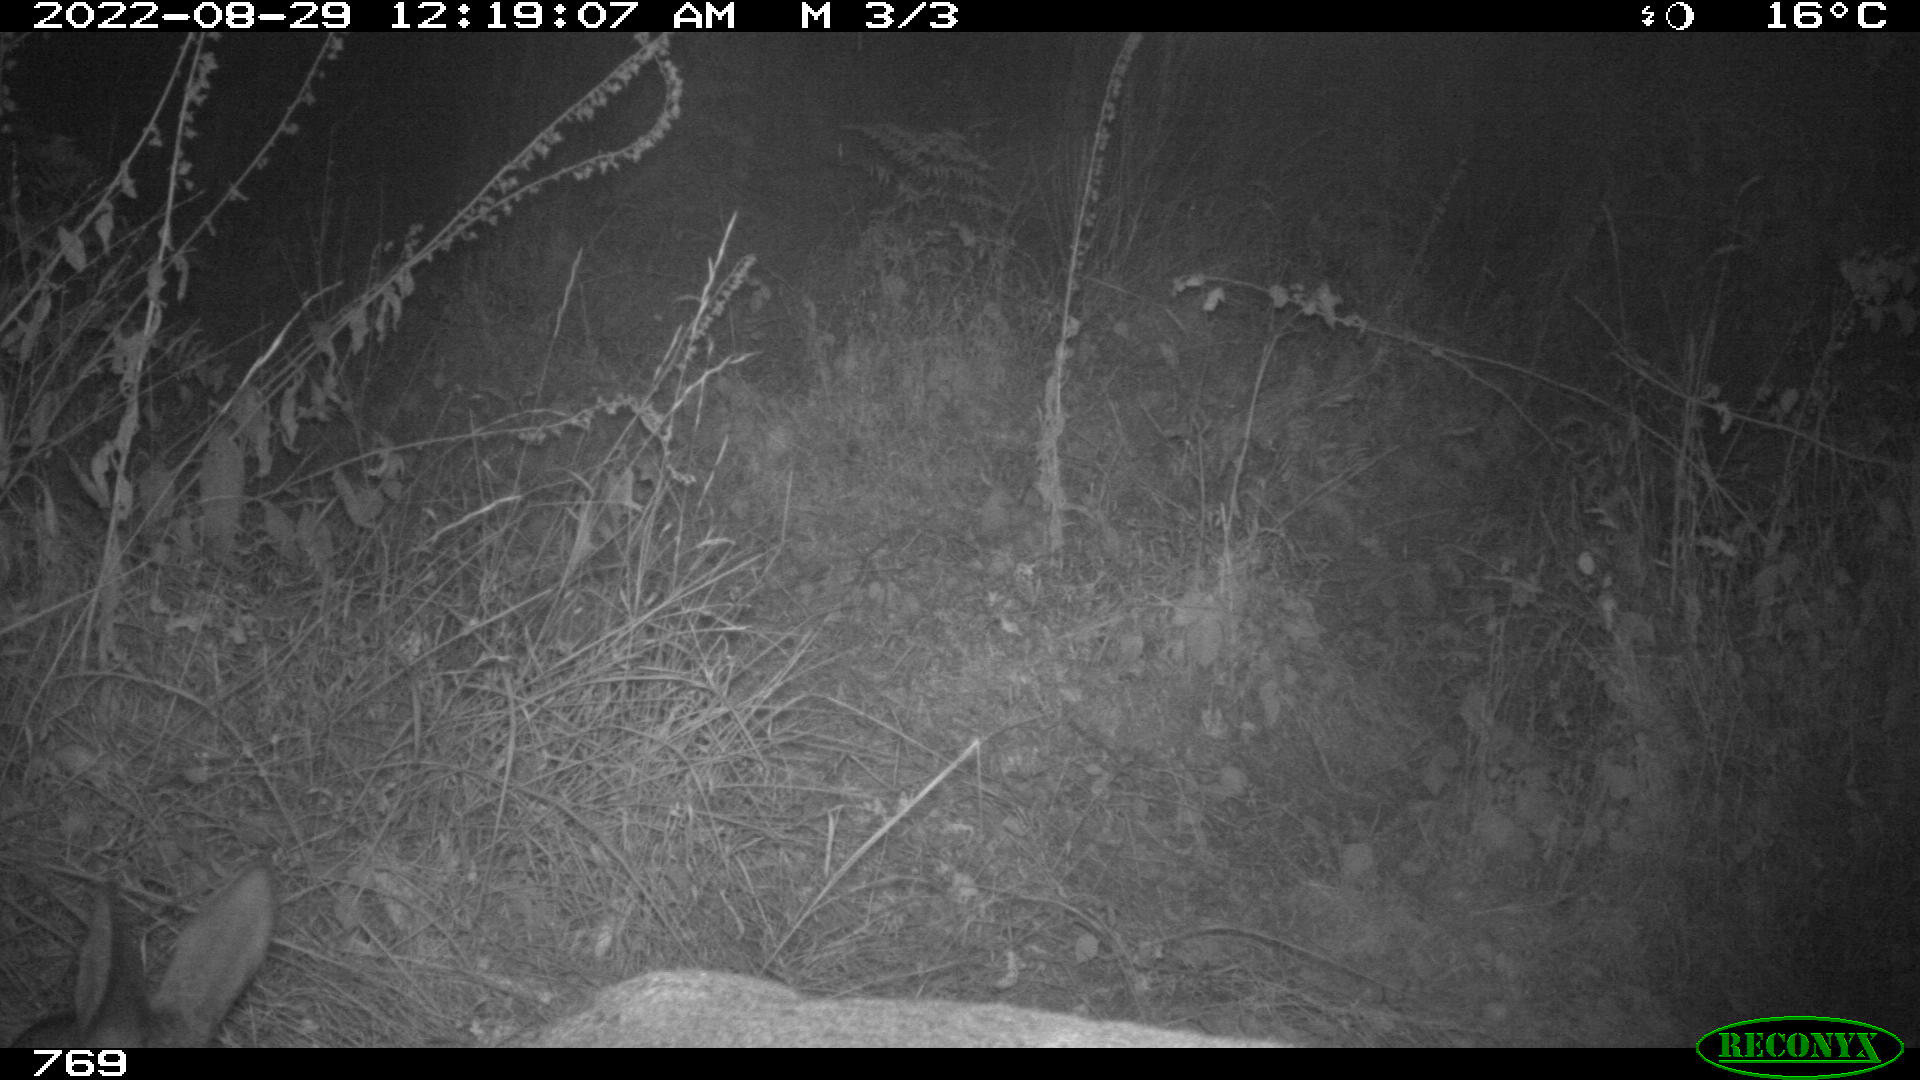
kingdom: Animalia
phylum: Chordata
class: Mammalia
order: Artiodactyla
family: Cervidae
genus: Capreolus
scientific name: Capreolus capreolus
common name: Western roe deer
